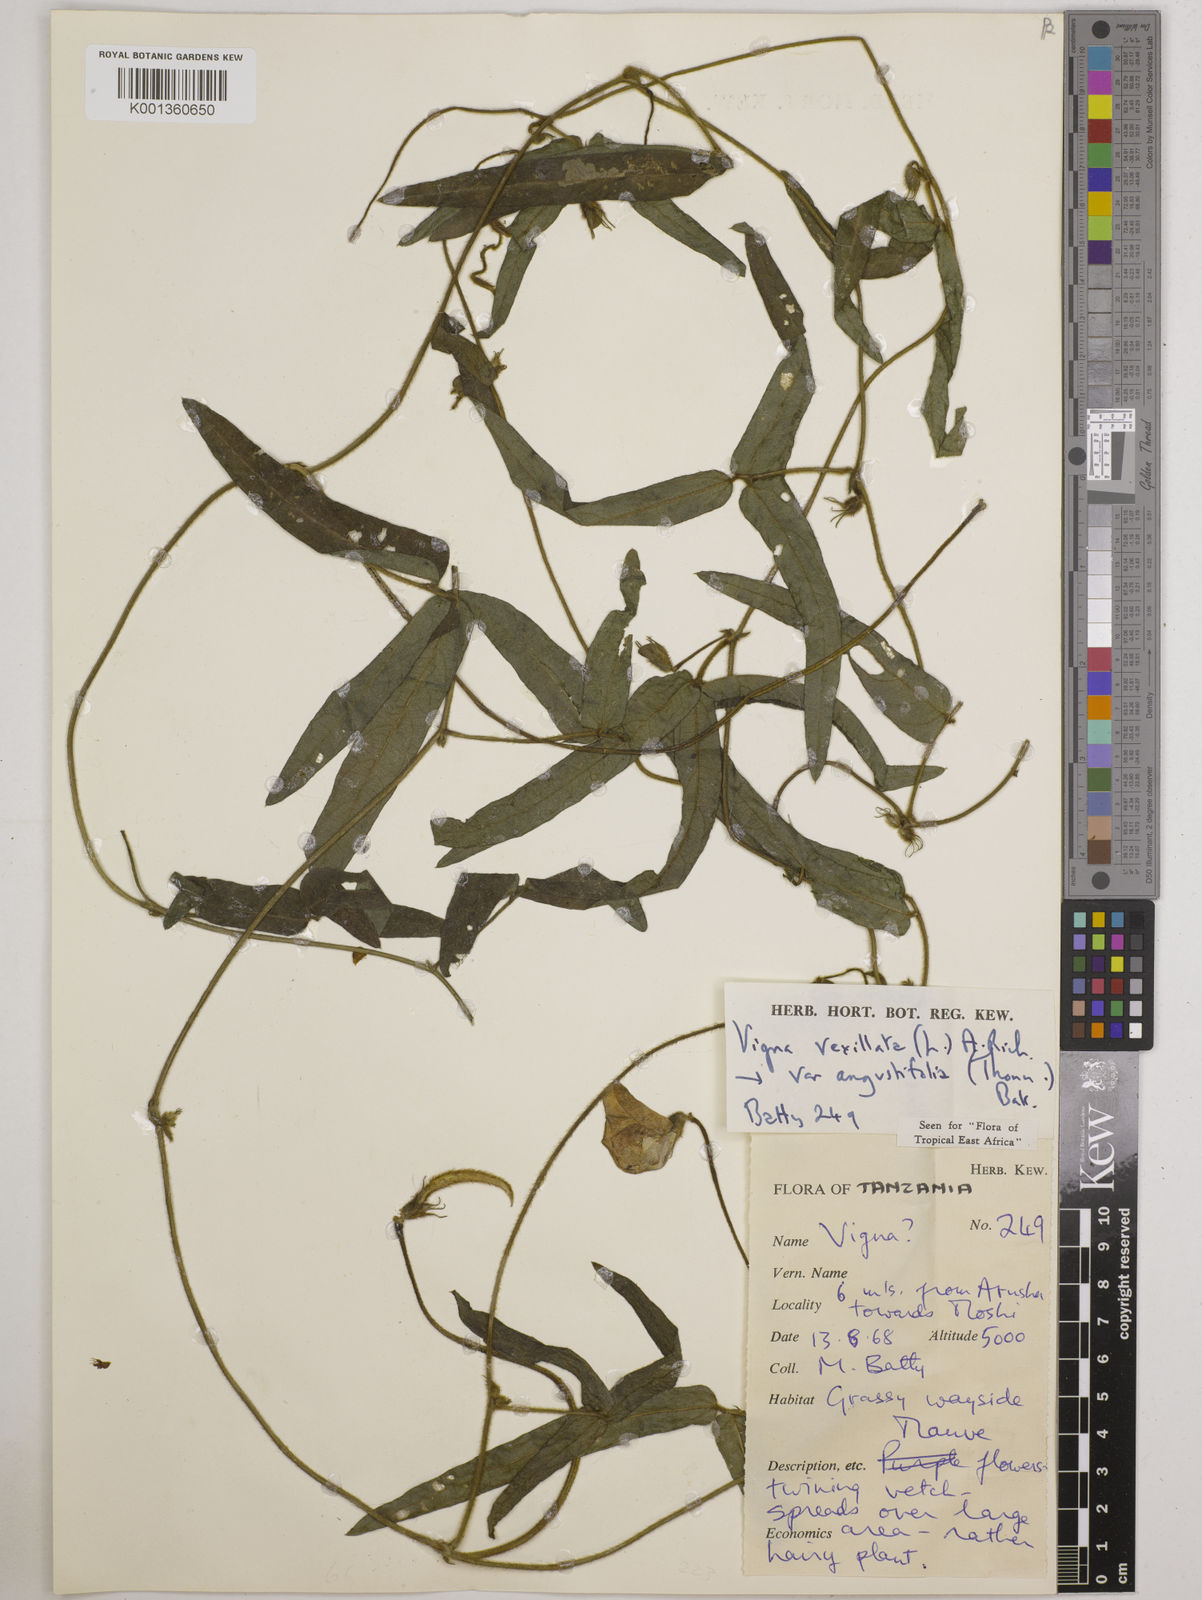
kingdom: Plantae
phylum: Tracheophyta
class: Magnoliopsida
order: Fabales
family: Fabaceae
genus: Vigna
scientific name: Vigna vexillata
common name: Zombi pea
